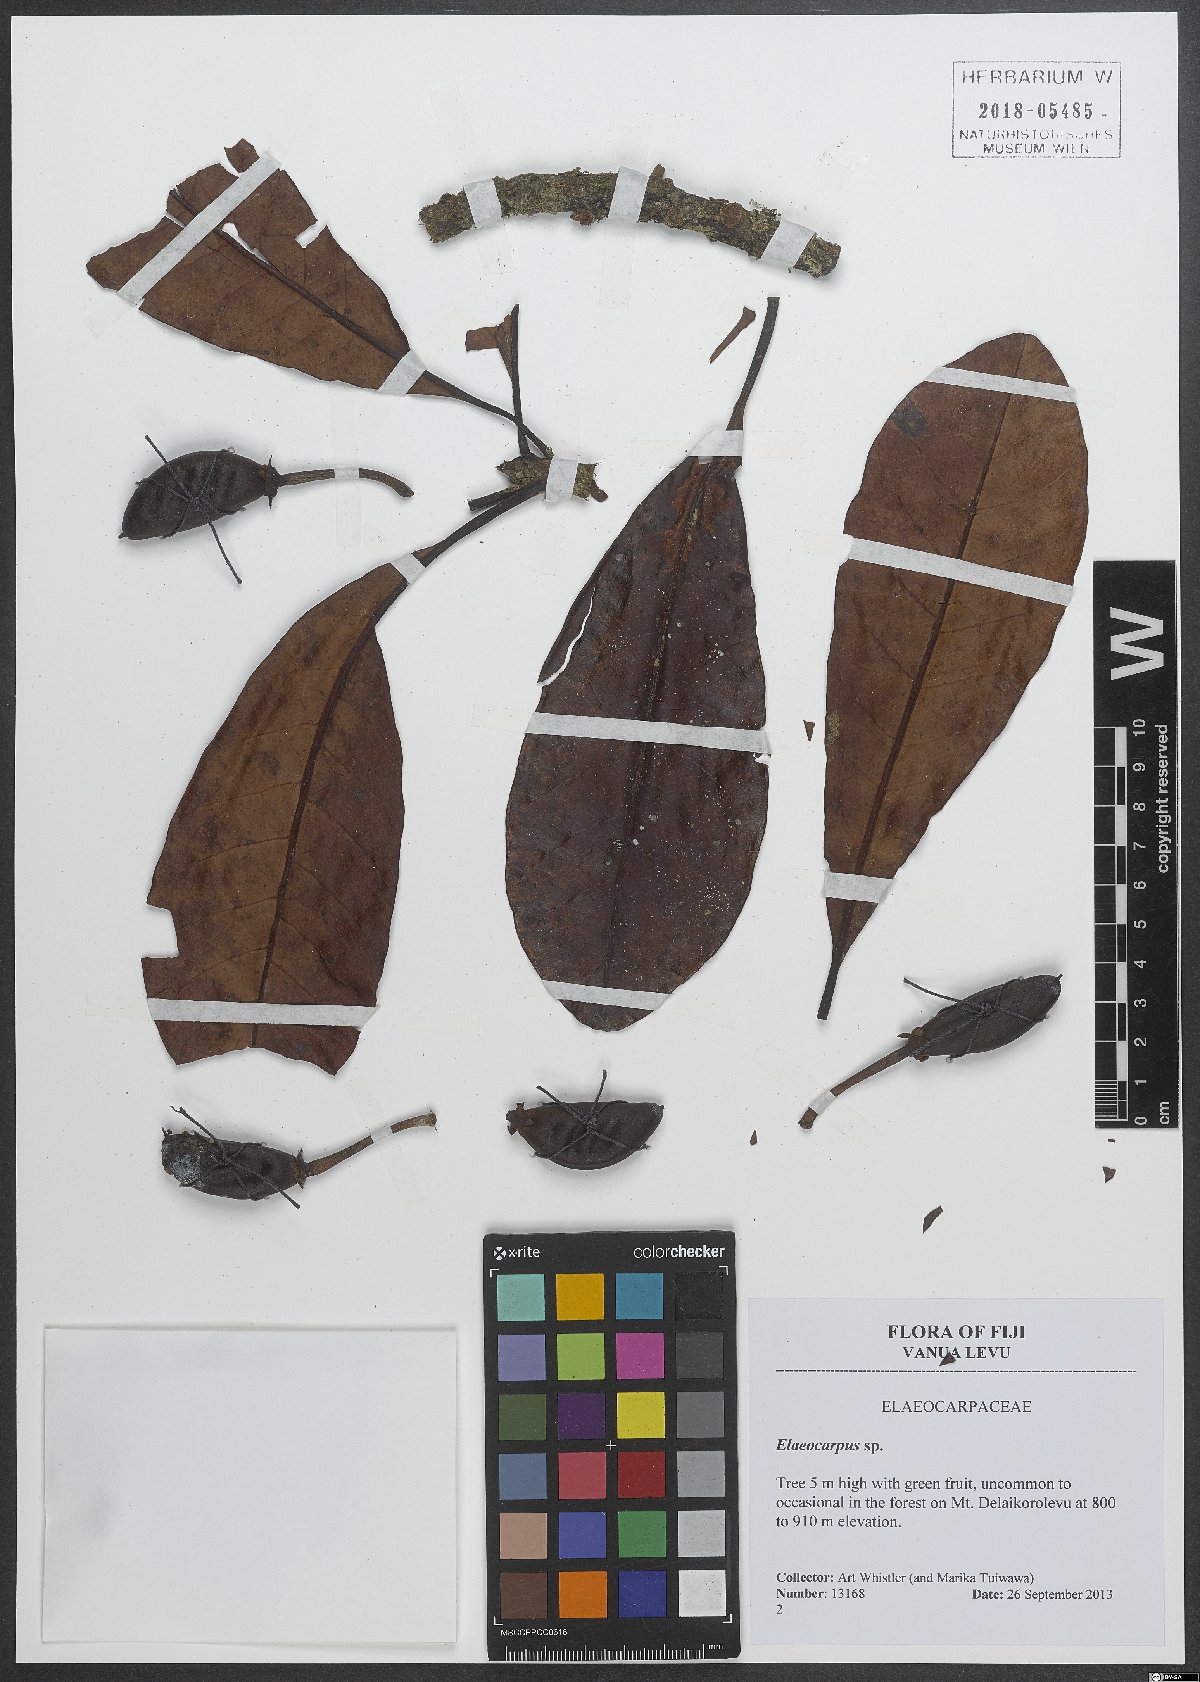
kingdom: Plantae
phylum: Tracheophyta
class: Magnoliopsida
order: Oxalidales
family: Elaeocarpaceae
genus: Elaeocarpus
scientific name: Elaeocarpus
